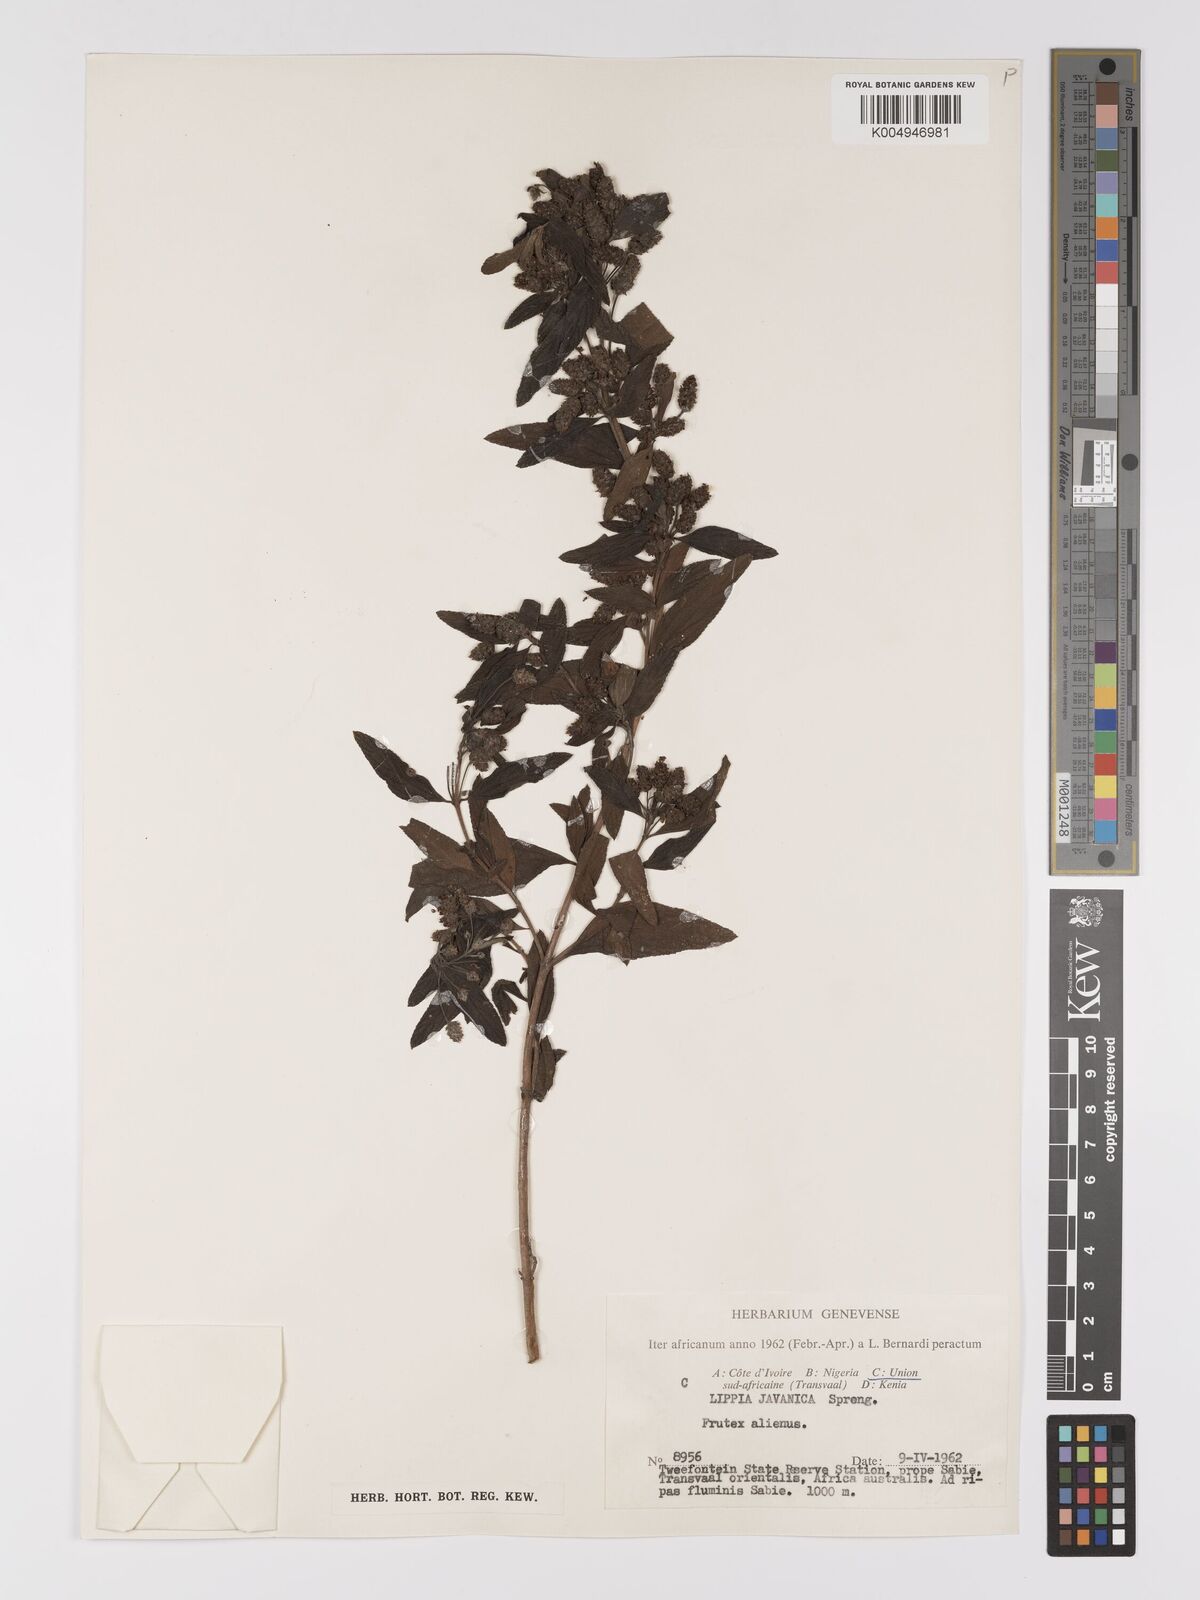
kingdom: Plantae
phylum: Tracheophyta
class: Magnoliopsida
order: Lamiales
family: Verbenaceae
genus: Lippia
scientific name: Lippia javanica
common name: Lemonbush
